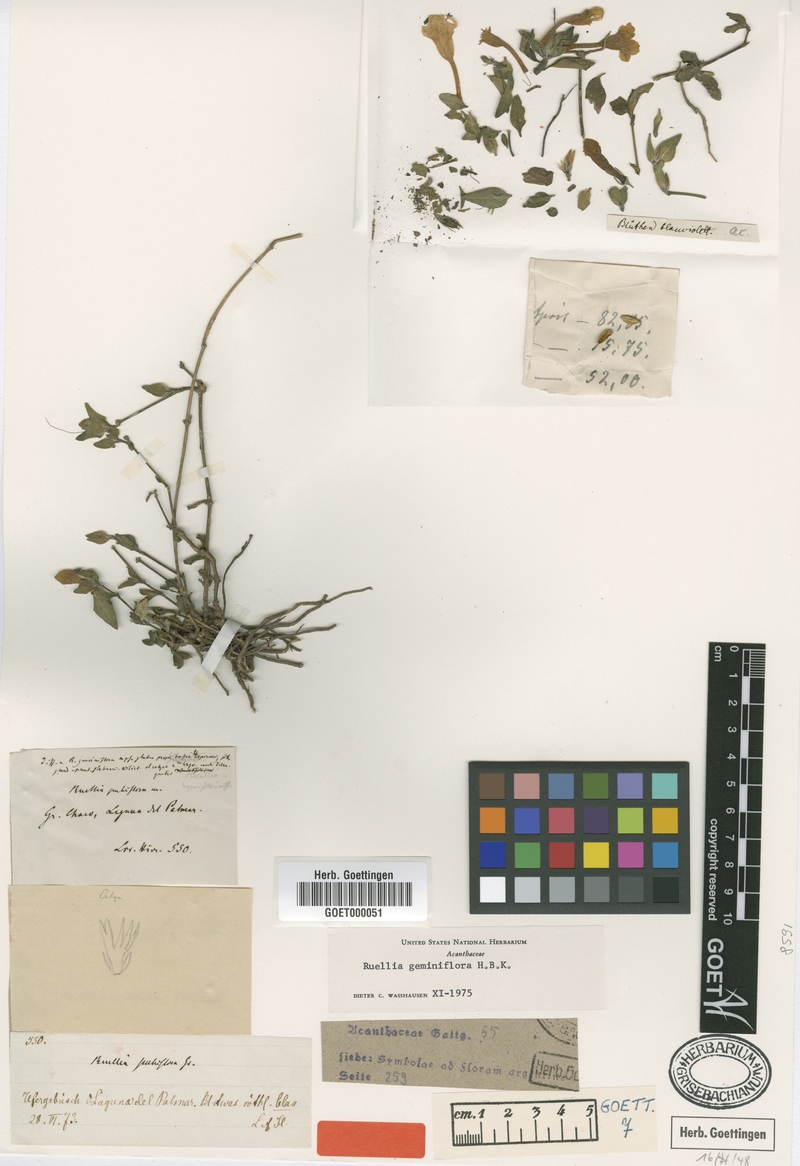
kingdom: Plantae
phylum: Tracheophyta
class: Magnoliopsida
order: Lamiales
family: Acanthaceae
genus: Ruellia
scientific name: Ruellia geminiflora
